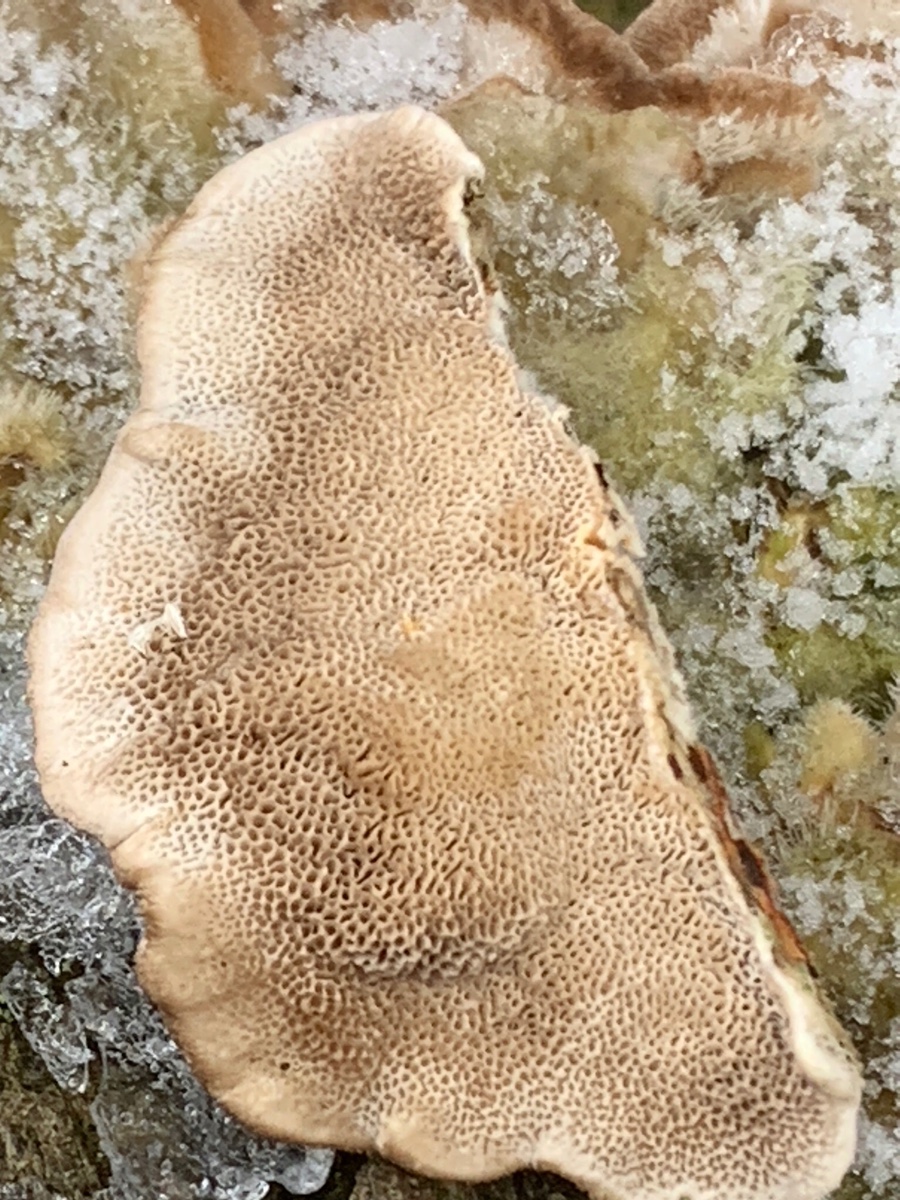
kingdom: Fungi
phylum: Basidiomycota
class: Agaricomycetes
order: Polyporales
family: Polyporaceae
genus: Trametes
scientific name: Trametes hirsuta
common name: håret læderporesvamp
